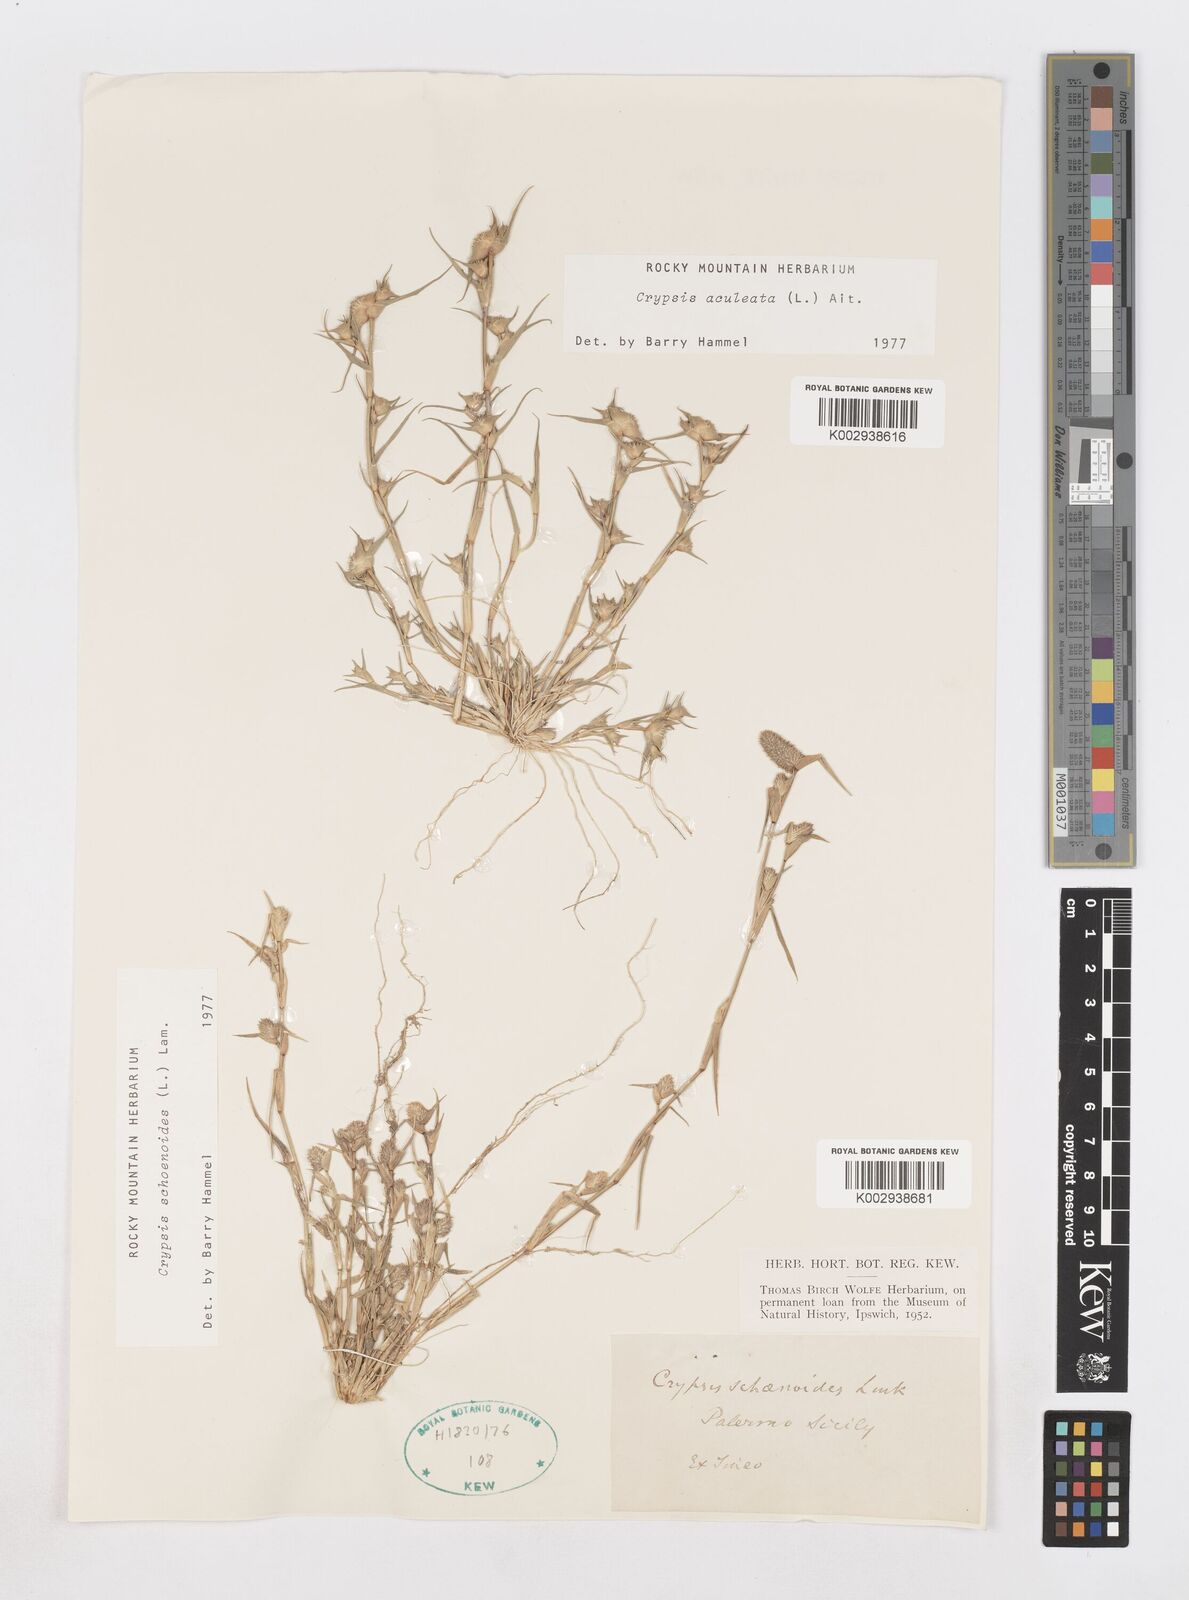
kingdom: Plantae
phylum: Tracheophyta
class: Liliopsida
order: Poales
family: Poaceae
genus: Sporobolus
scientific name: Sporobolus schoenoides
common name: Rush-like timothy
